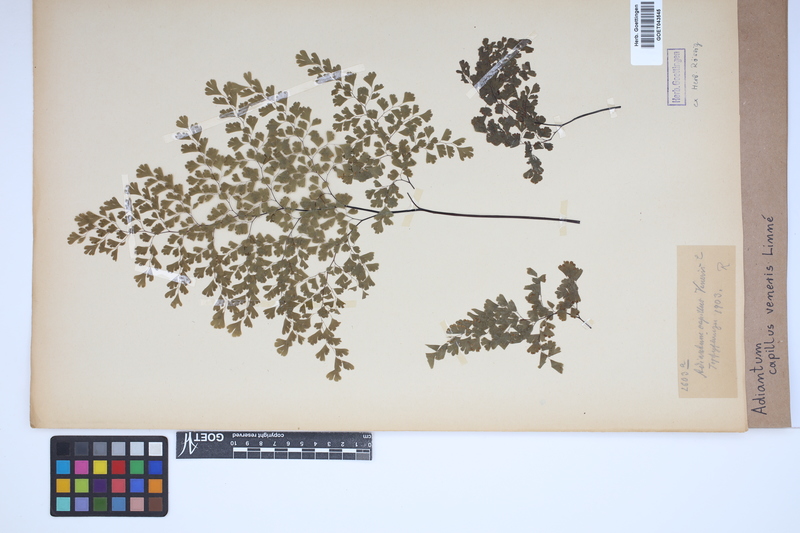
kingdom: Plantae
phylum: Tracheophyta
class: Polypodiopsida
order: Polypodiales
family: Pteridaceae
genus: Adiantum
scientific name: Adiantum capillus-veneris
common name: Maidenhair fern
